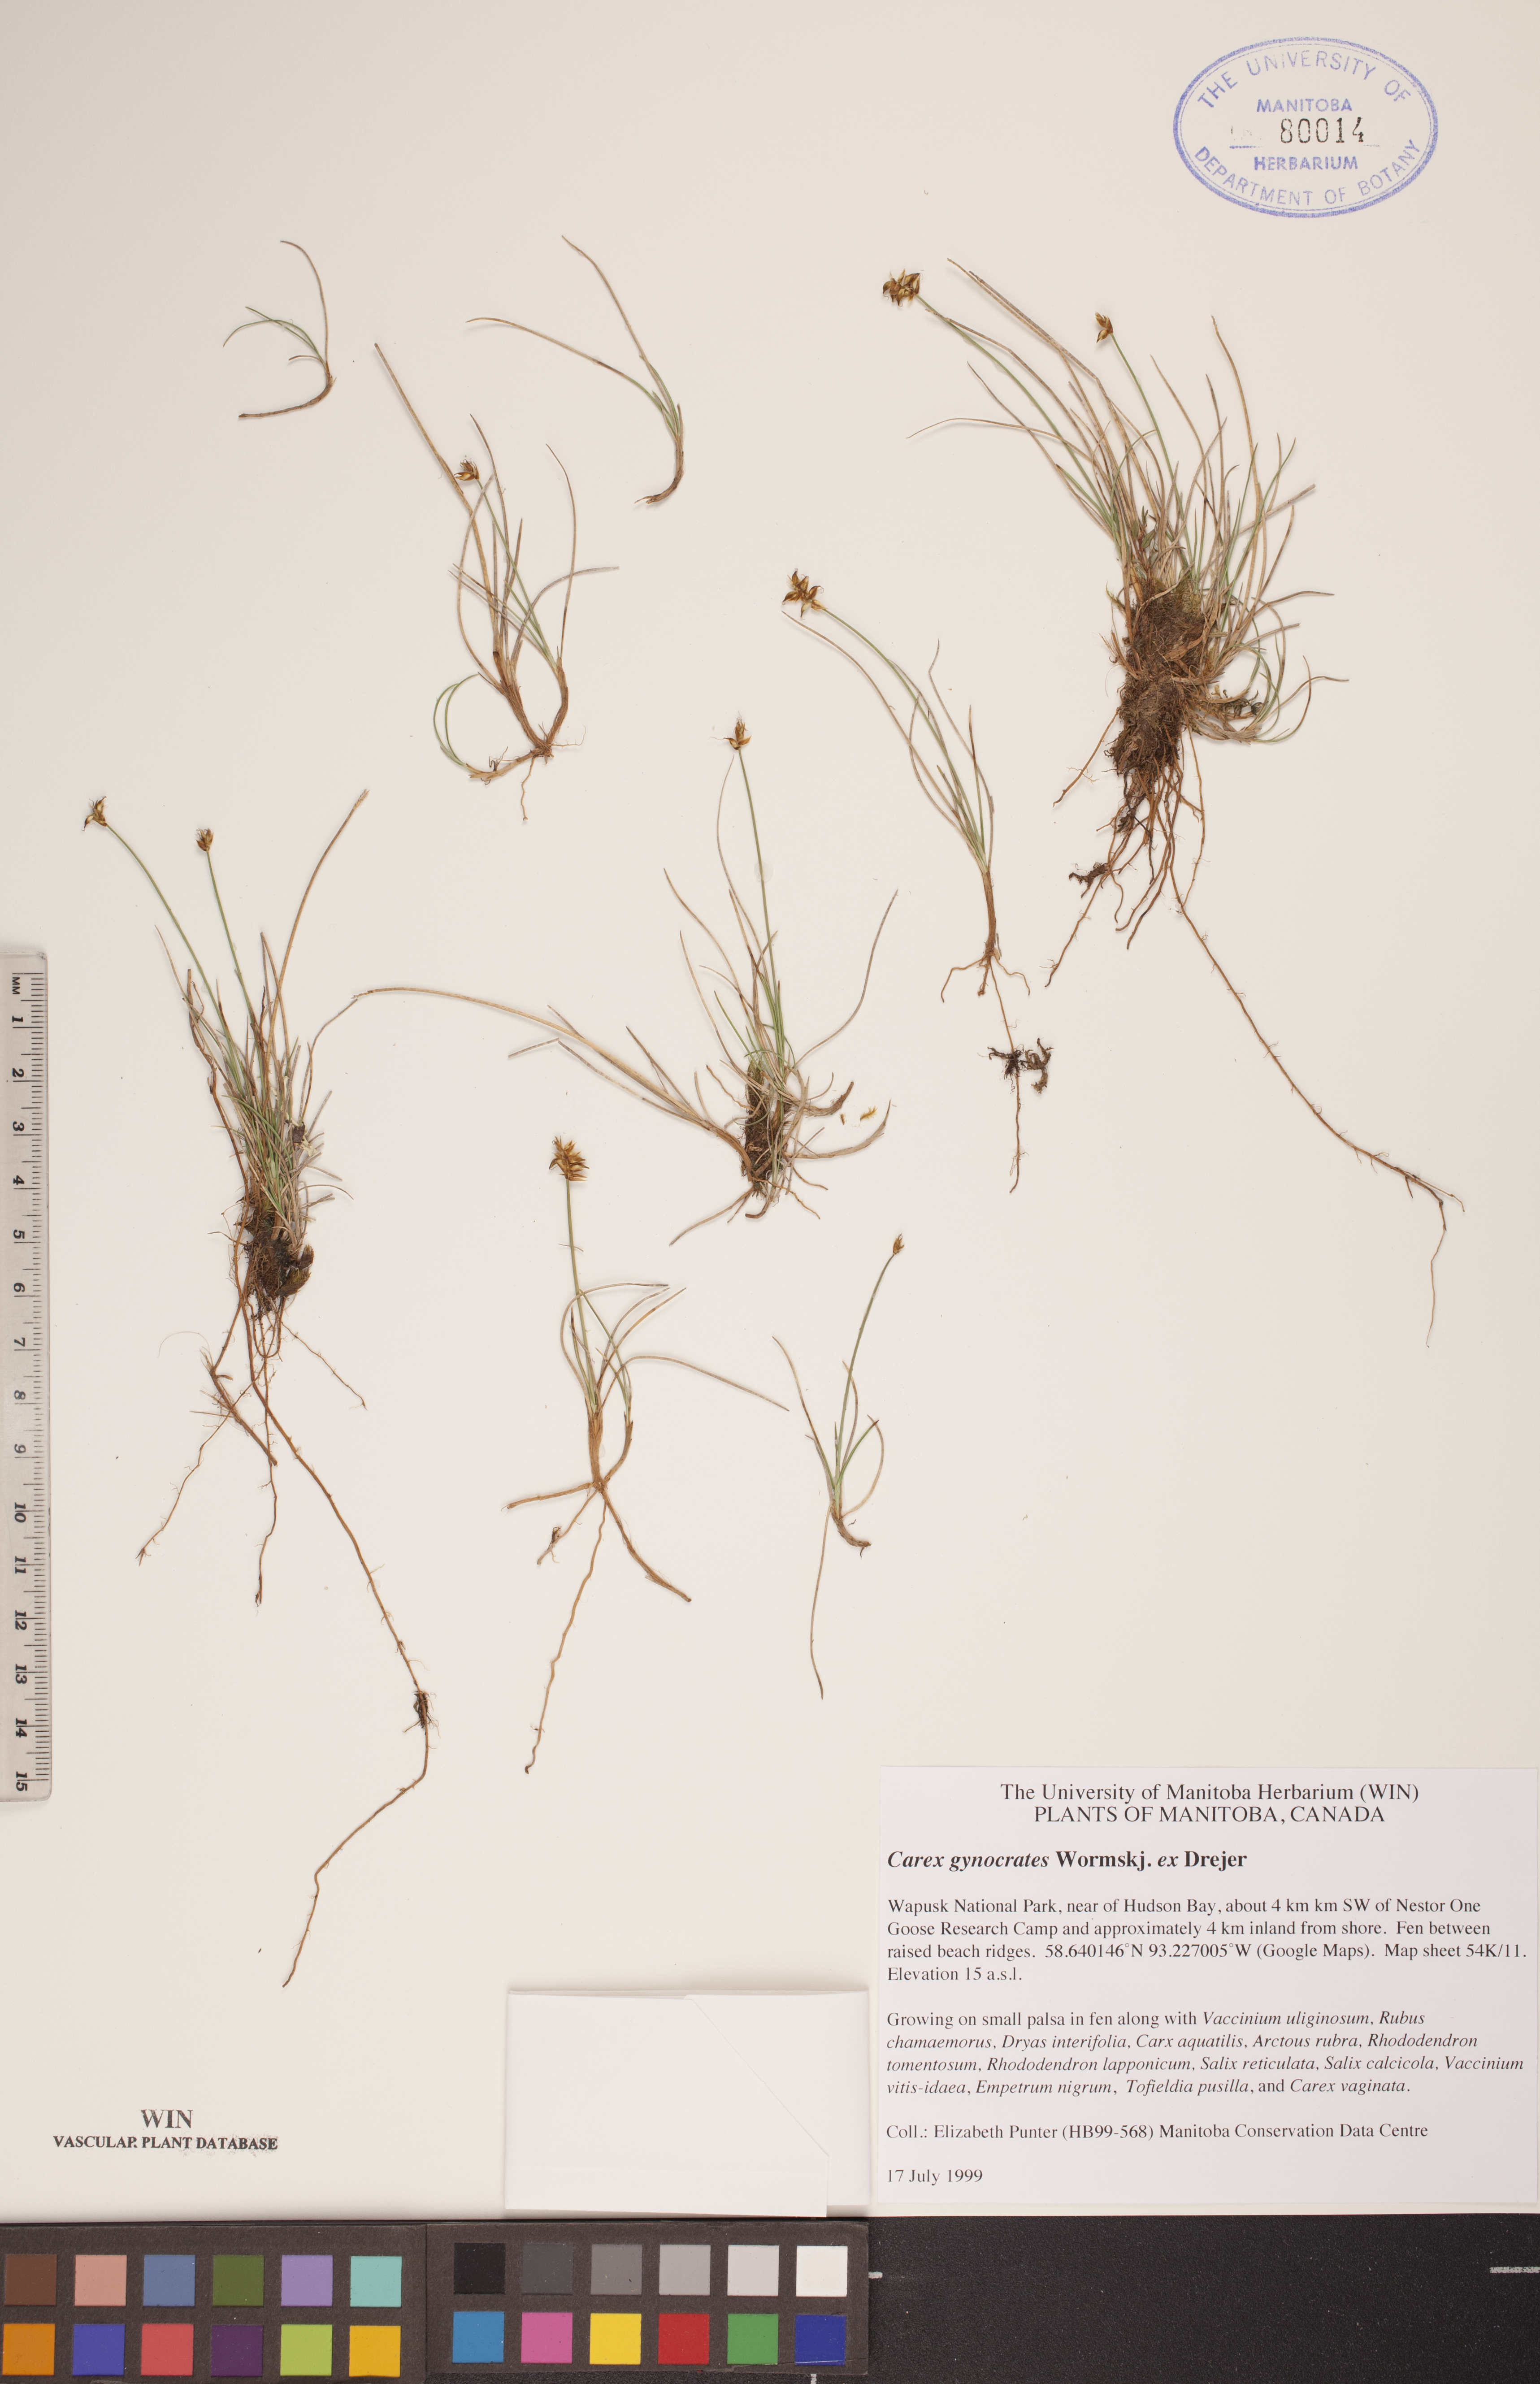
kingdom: Plantae
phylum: Tracheophyta
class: Liliopsida
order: Poales
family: Cyperaceae
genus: Carex
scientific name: Carex nardina
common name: Nard sedge
